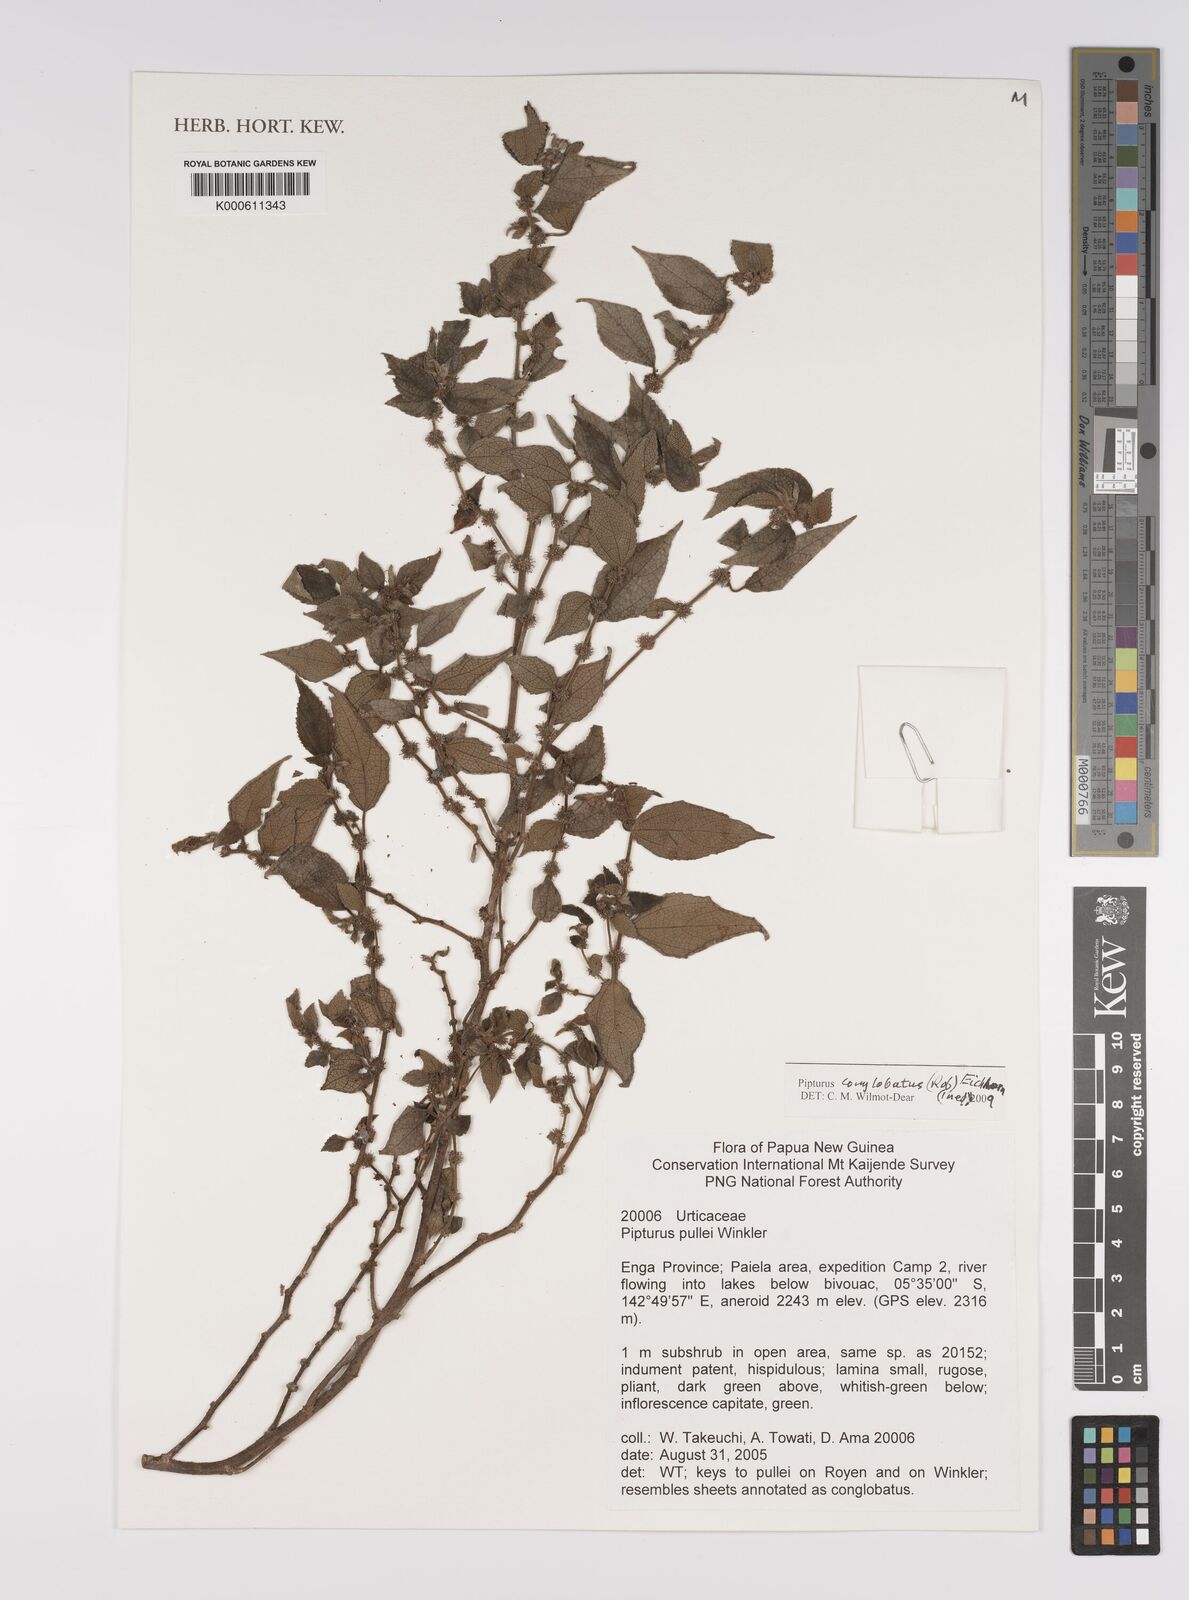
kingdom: Plantae
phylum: Tracheophyta
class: Magnoliopsida
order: Rosales
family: Urticaceae
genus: Pipturus
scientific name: Pipturus
